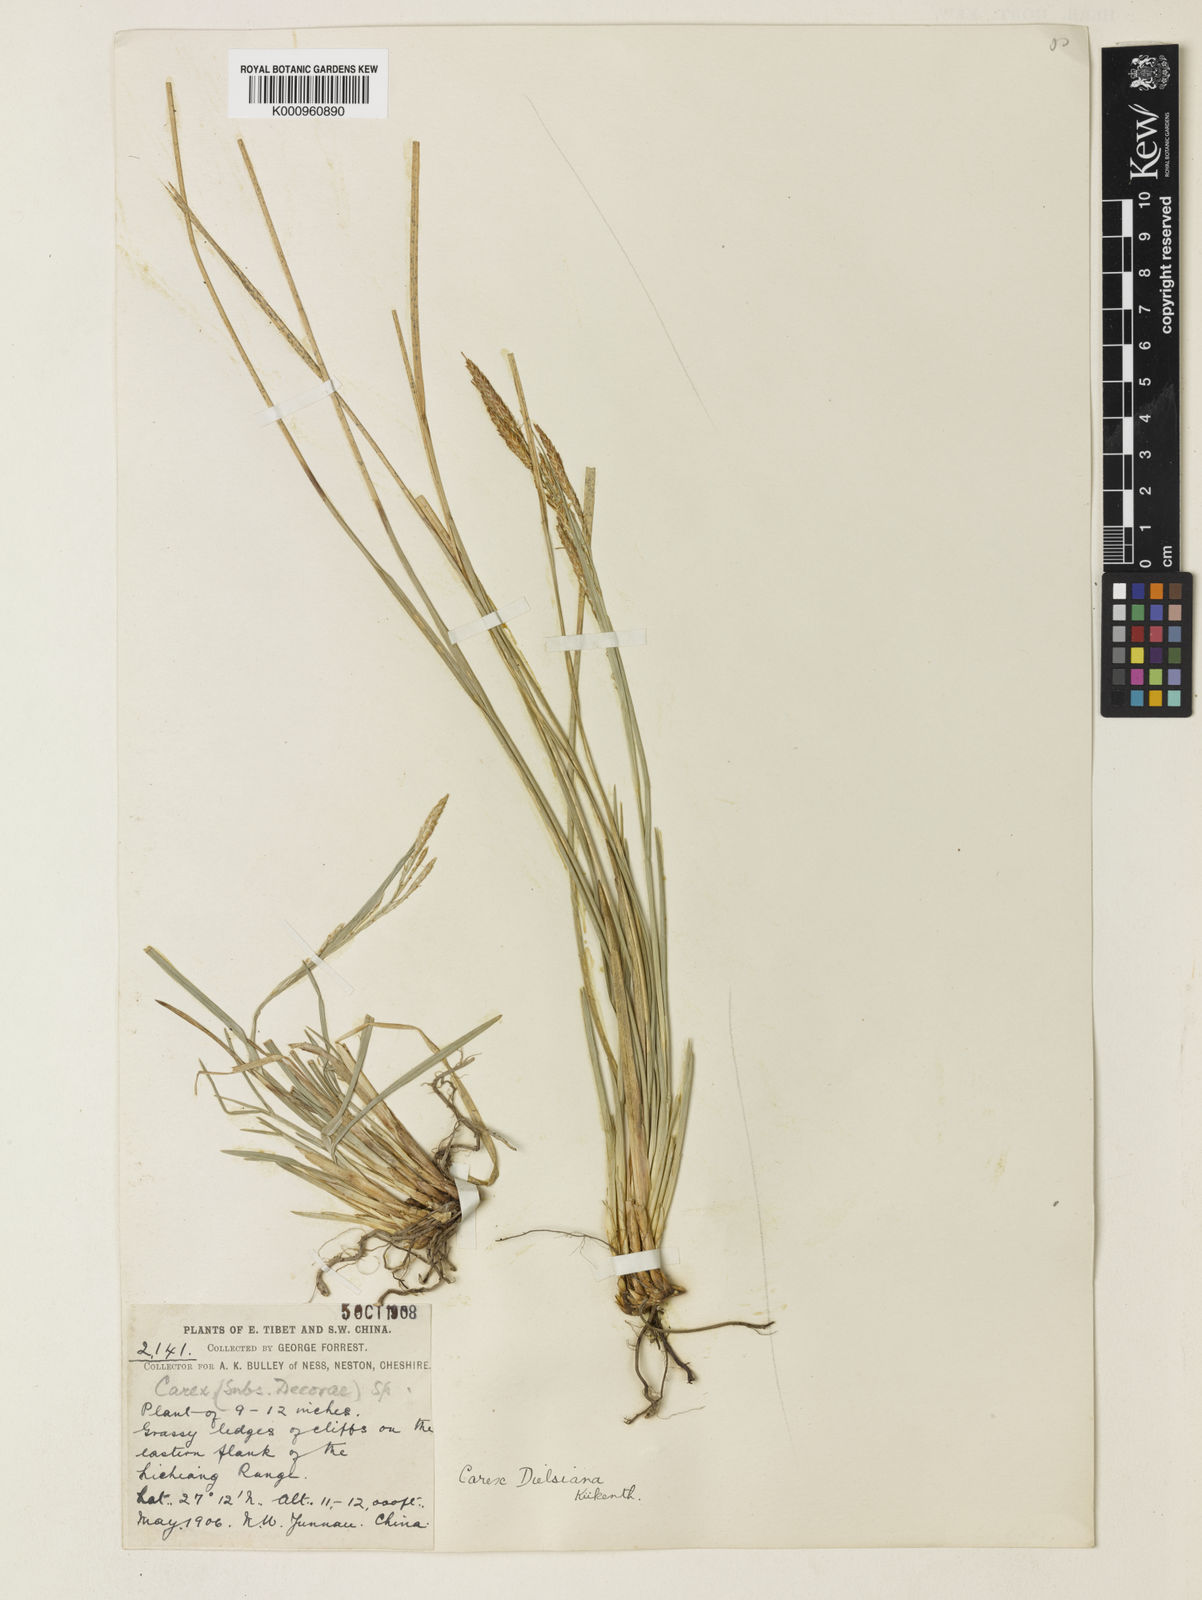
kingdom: Plantae
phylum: Tracheophyta
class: Liliopsida
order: Poales
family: Cyperaceae
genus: Carex
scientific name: Carex
